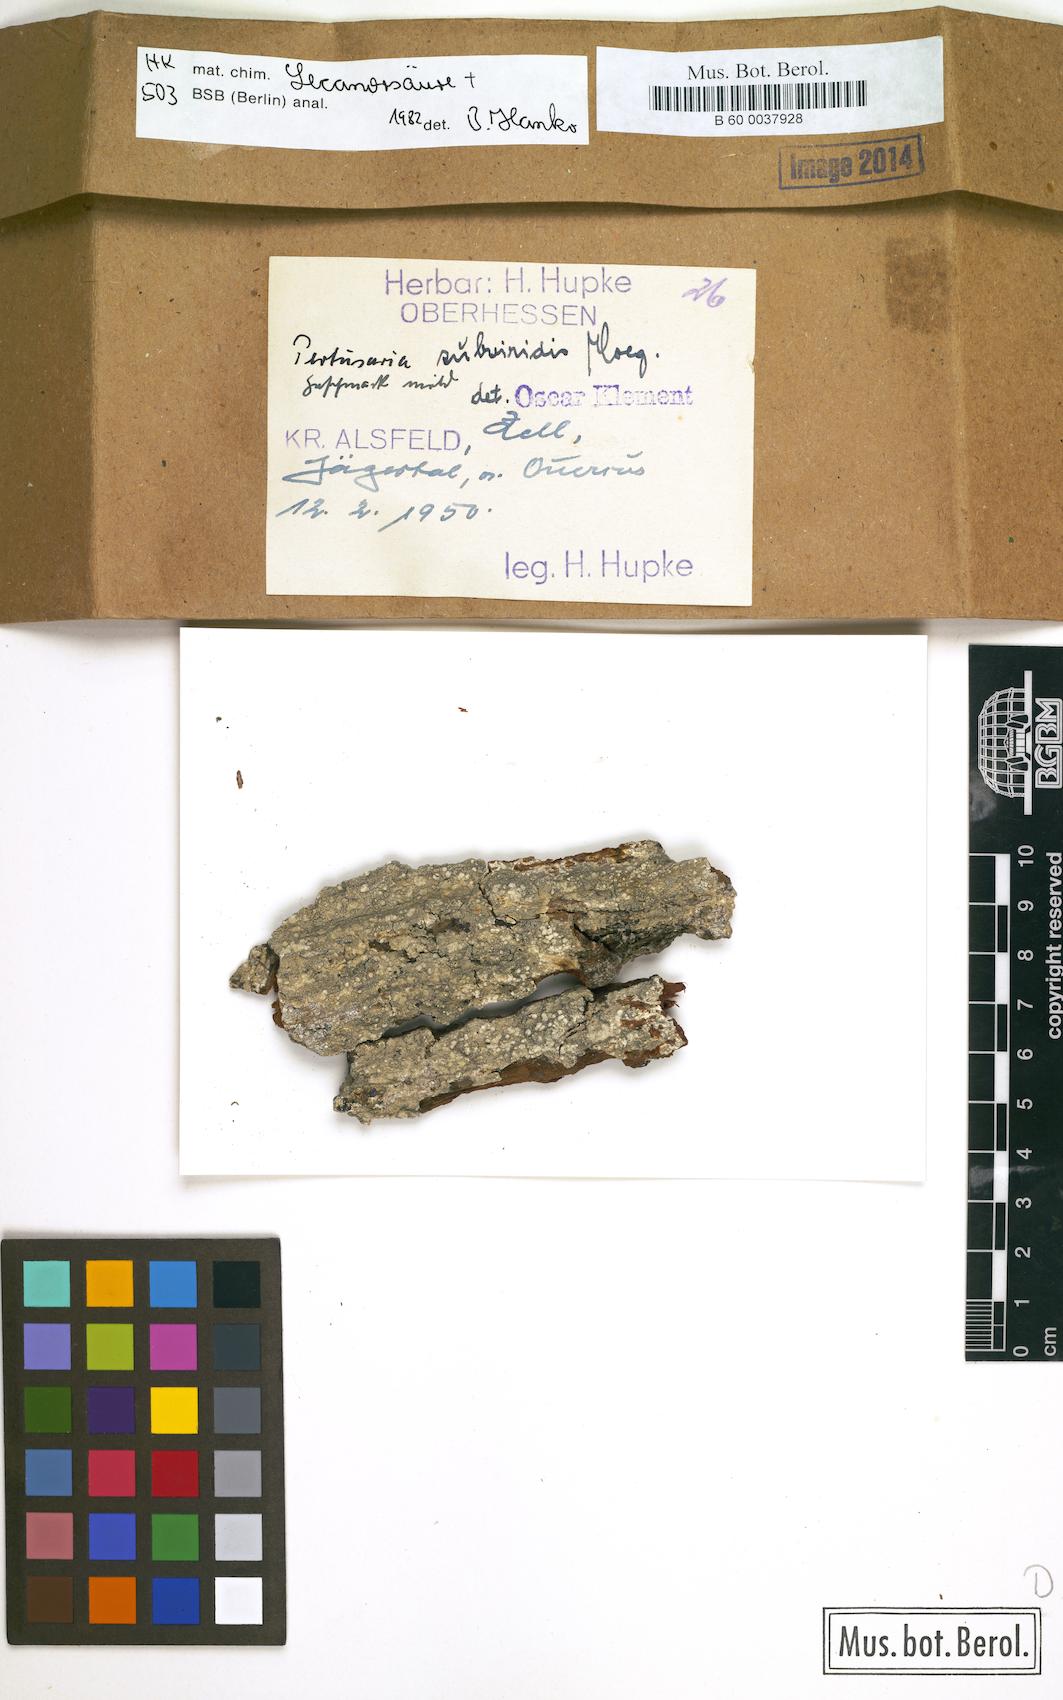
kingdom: Fungi
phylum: Ascomycota
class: Lecanoromycetes
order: Pertusariales
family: Pertusariaceae
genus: Pertusaria
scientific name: Pertusaria
